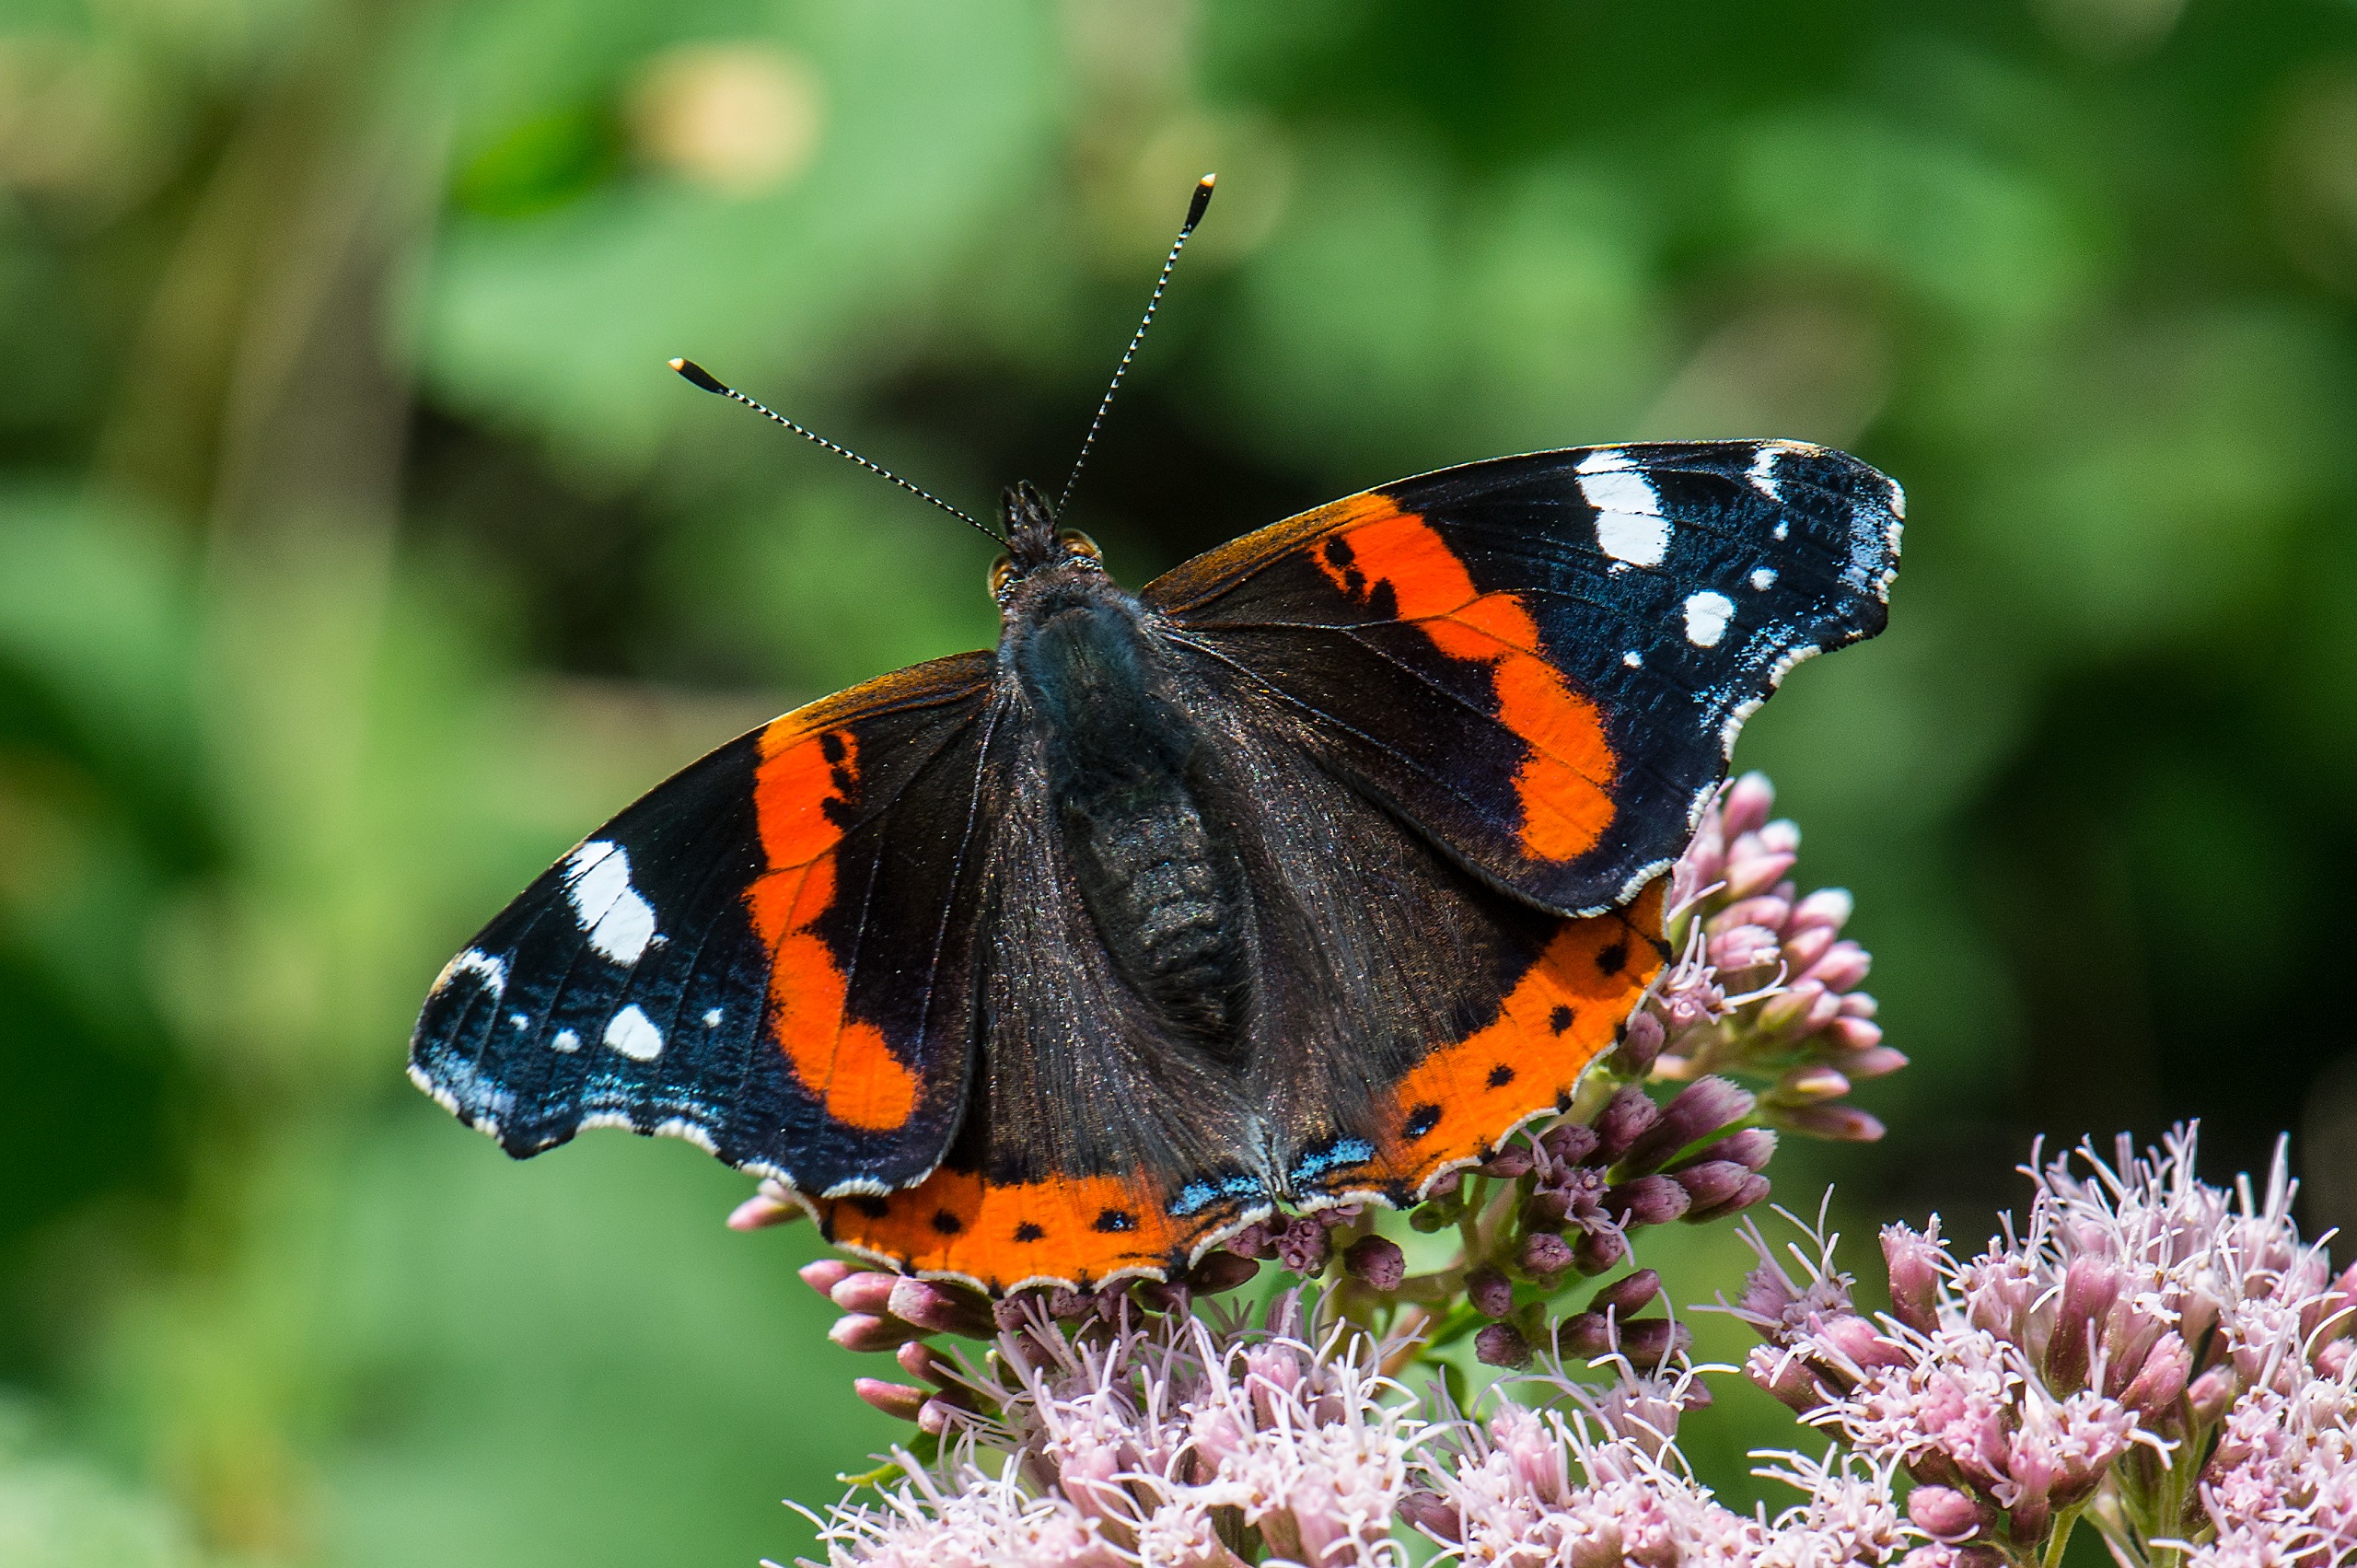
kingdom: Animalia
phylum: Arthropoda
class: Insecta
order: Lepidoptera
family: Nymphalidae
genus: Vanessa
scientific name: Vanessa atalanta
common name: Admiral
